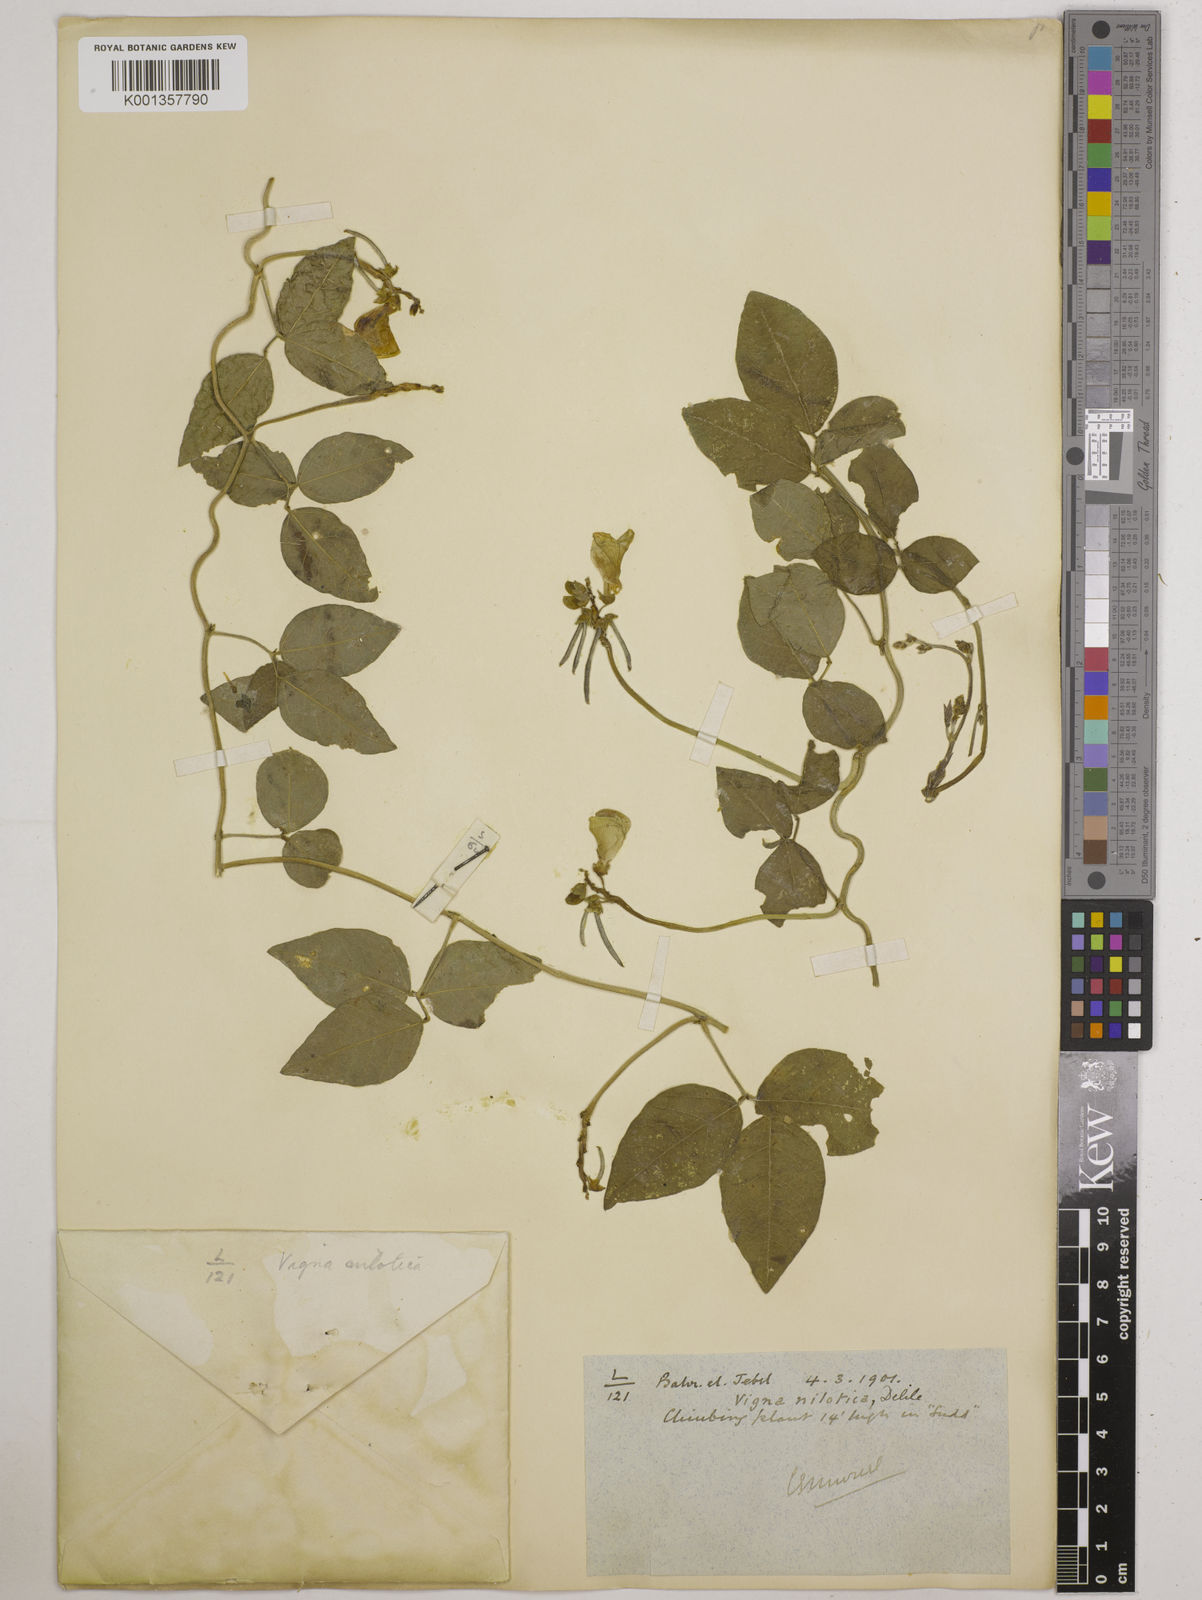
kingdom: Plantae
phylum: Tracheophyta
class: Magnoliopsida
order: Fabales
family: Fabaceae
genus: Vigna
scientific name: Vigna luteola
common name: Hairypod cowpea
